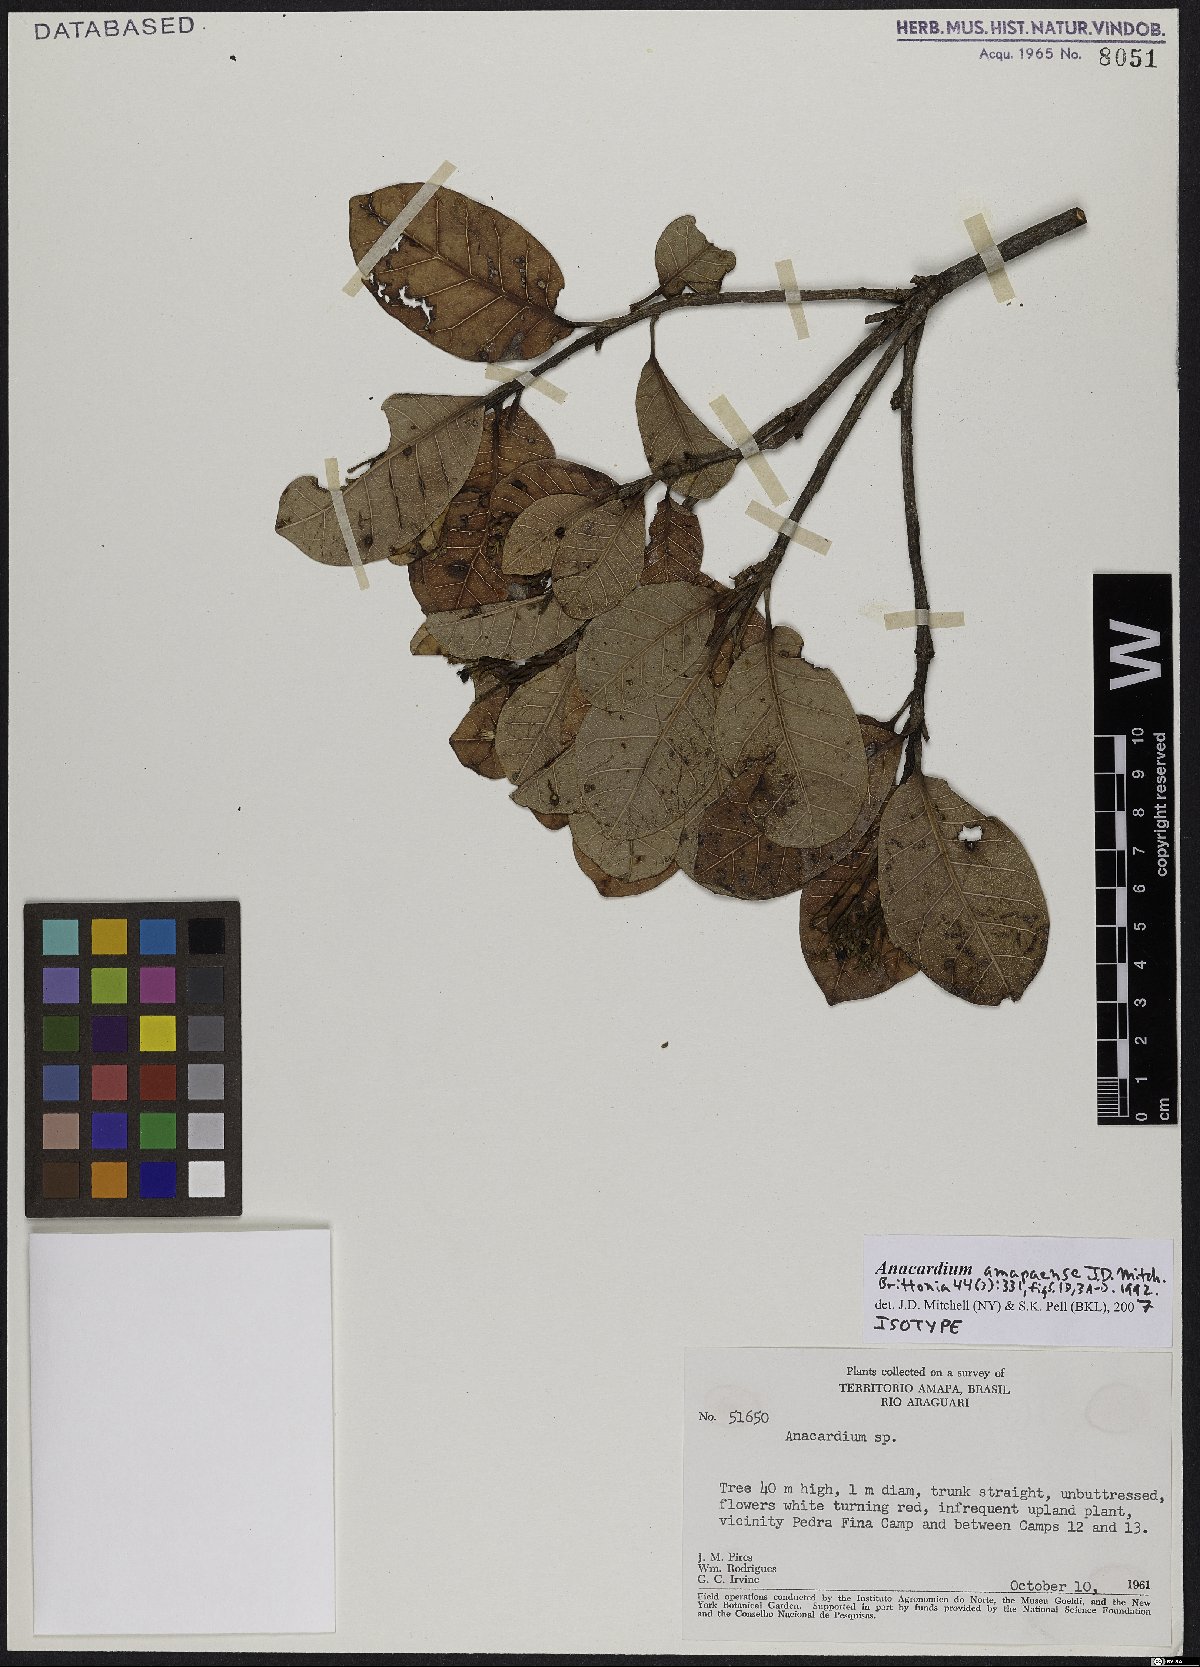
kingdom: Plantae
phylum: Tracheophyta
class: Magnoliopsida
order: Sapindales
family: Anacardiaceae
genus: Anacardium
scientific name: Anacardium amapaense
